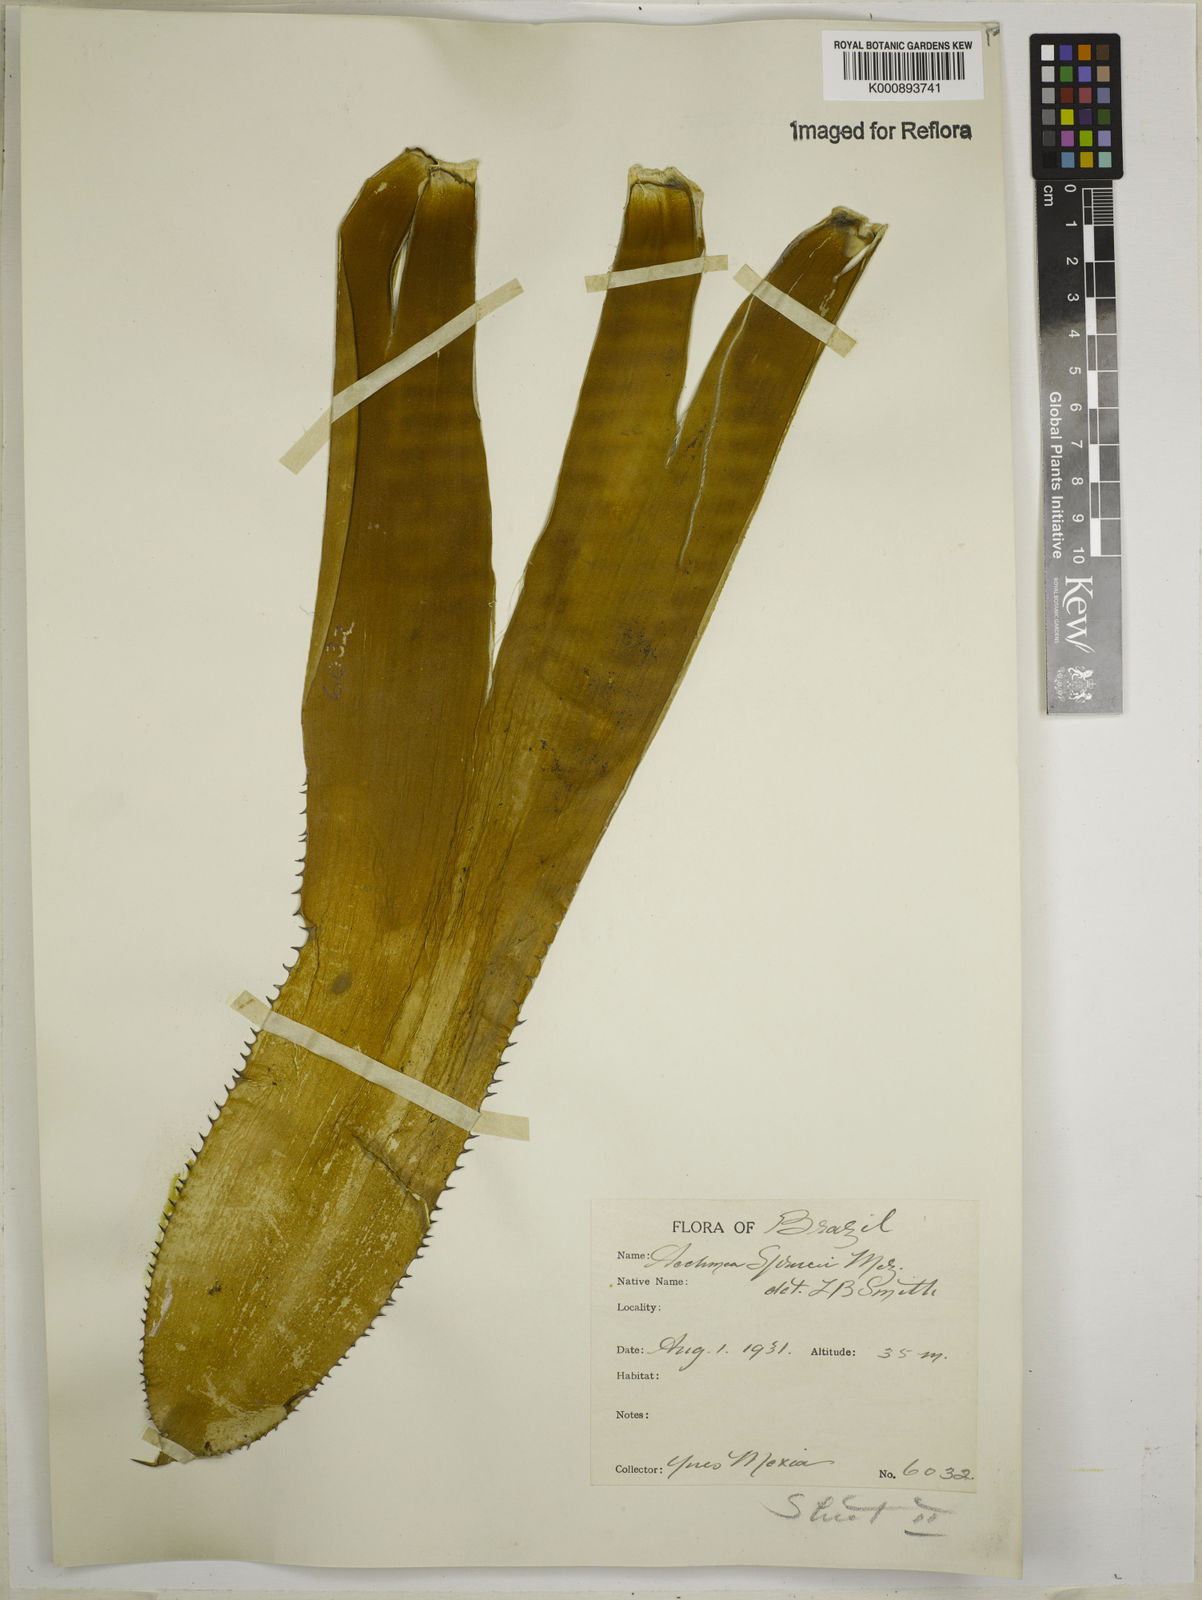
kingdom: Plantae
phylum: Tracheophyta
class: Liliopsida
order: Poales
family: Bromeliaceae
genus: Aechmea
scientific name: Aechmea castelnavii
